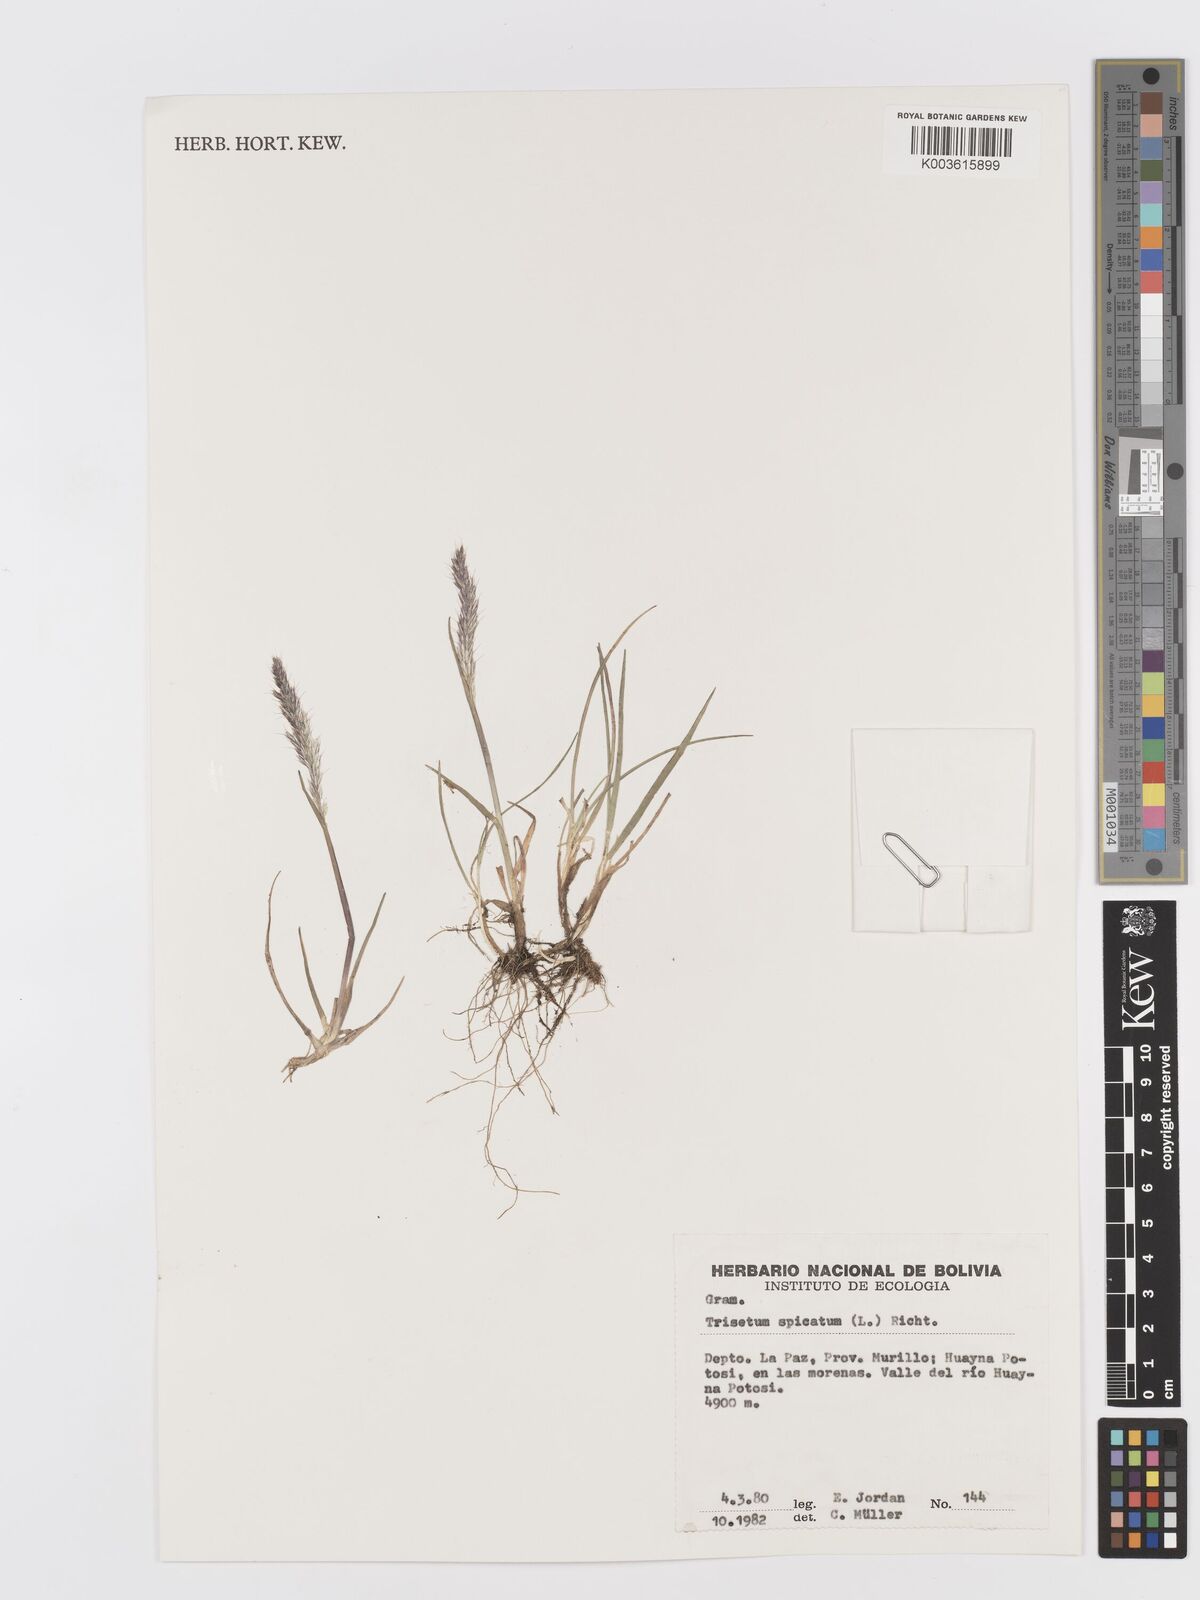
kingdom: Plantae
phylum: Tracheophyta
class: Liliopsida
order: Poales
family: Poaceae
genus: Koeleria
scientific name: Koeleria spicata
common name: Mountain trisetum
